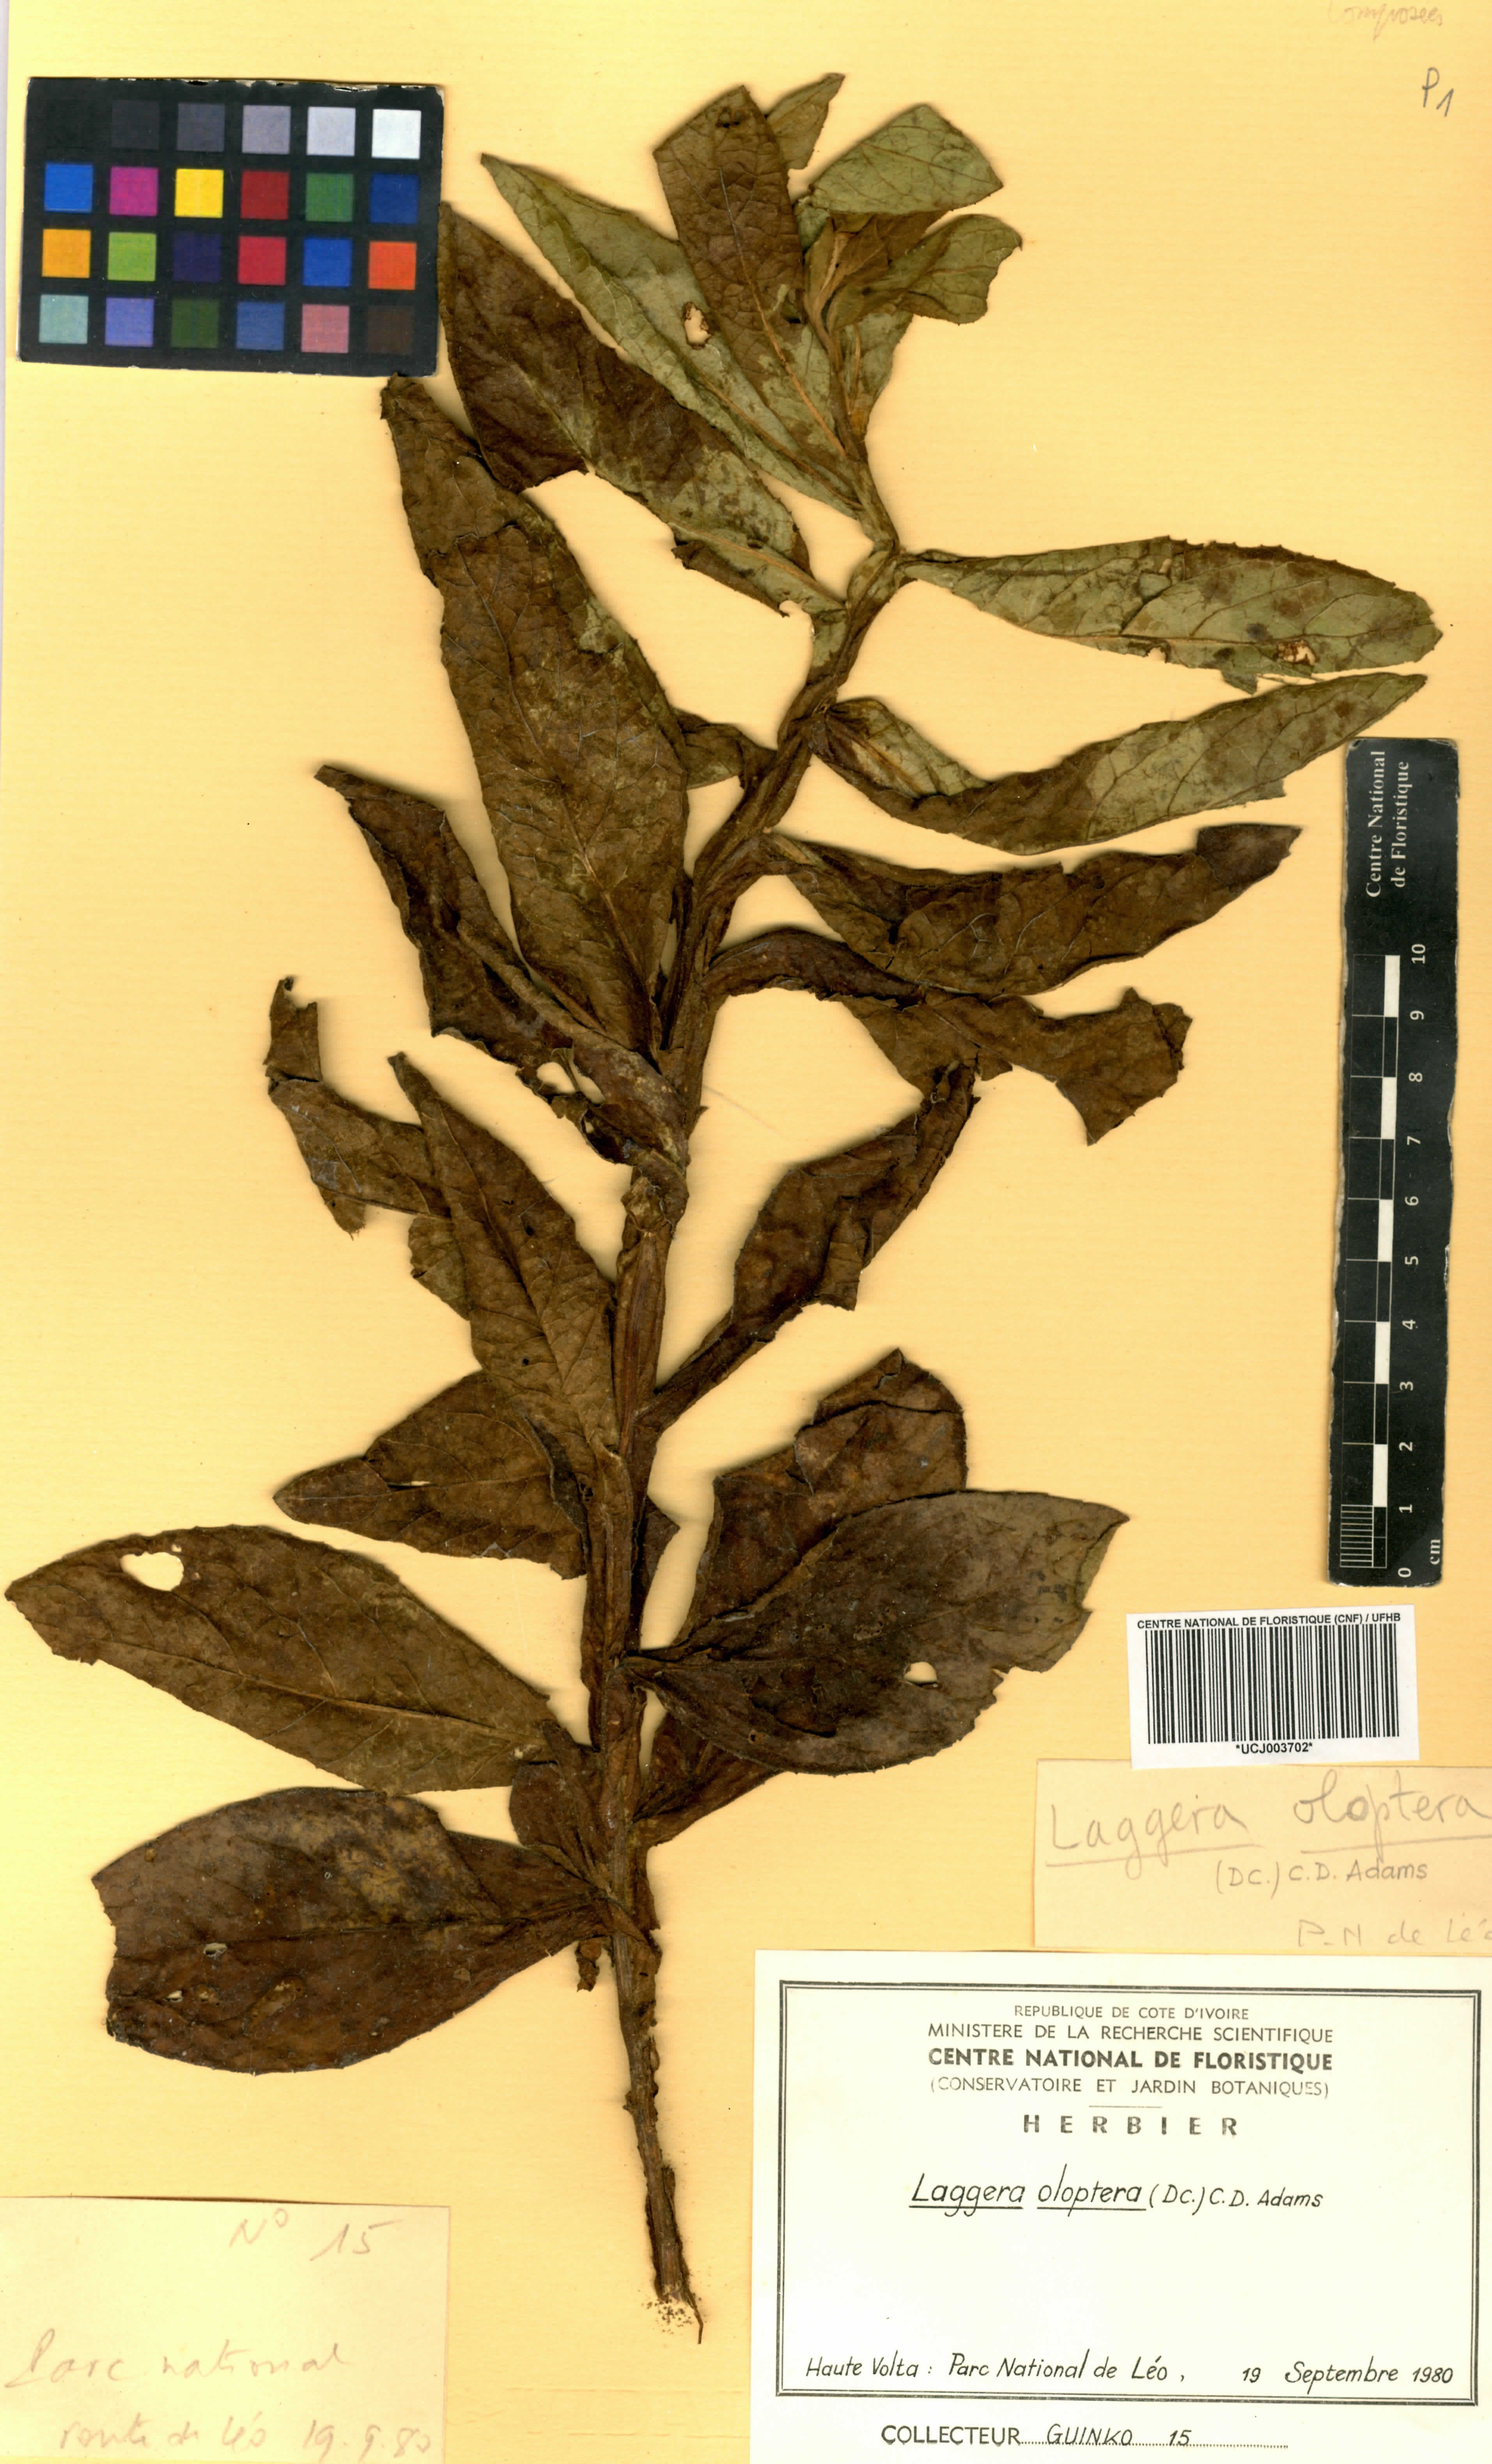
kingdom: Plantae
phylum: Tracheophyta
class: Magnoliopsida
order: Asterales
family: Asteraceae
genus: Laggera
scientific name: Laggera oloptera
